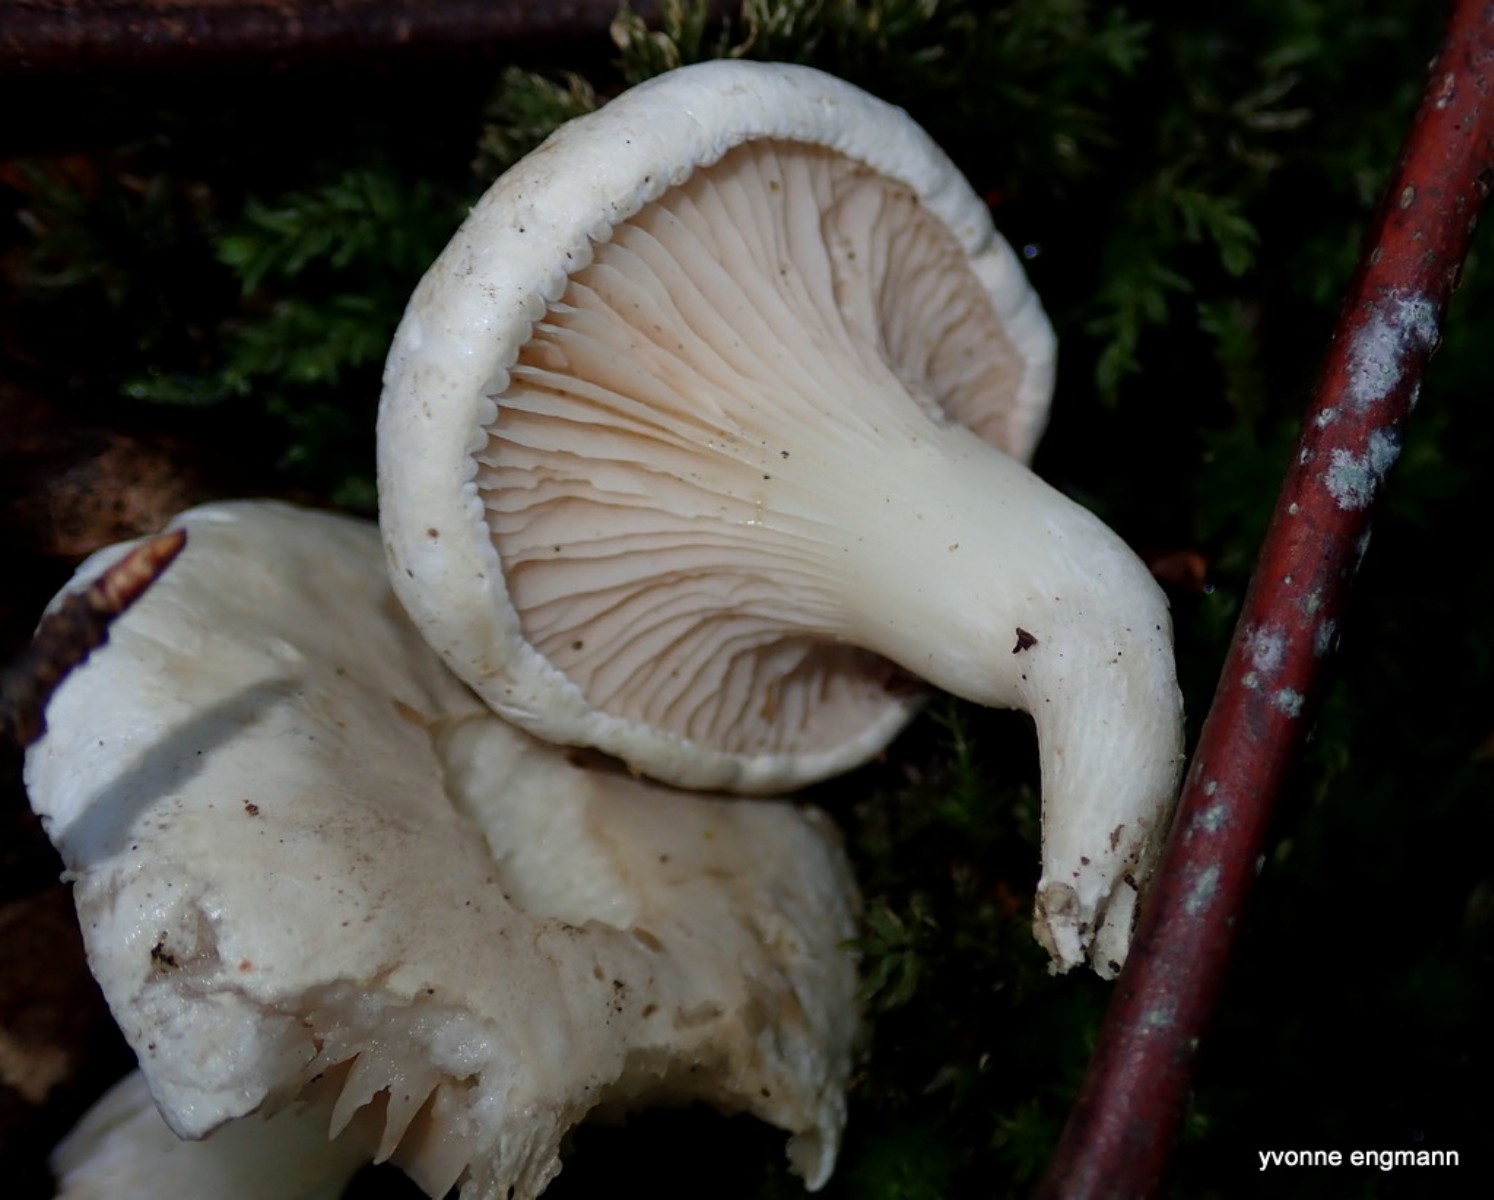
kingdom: Fungi
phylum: Basidiomycota
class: Agaricomycetes
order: Agaricales
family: Entolomataceae
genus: Clitopilus
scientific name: Clitopilus prunulus
